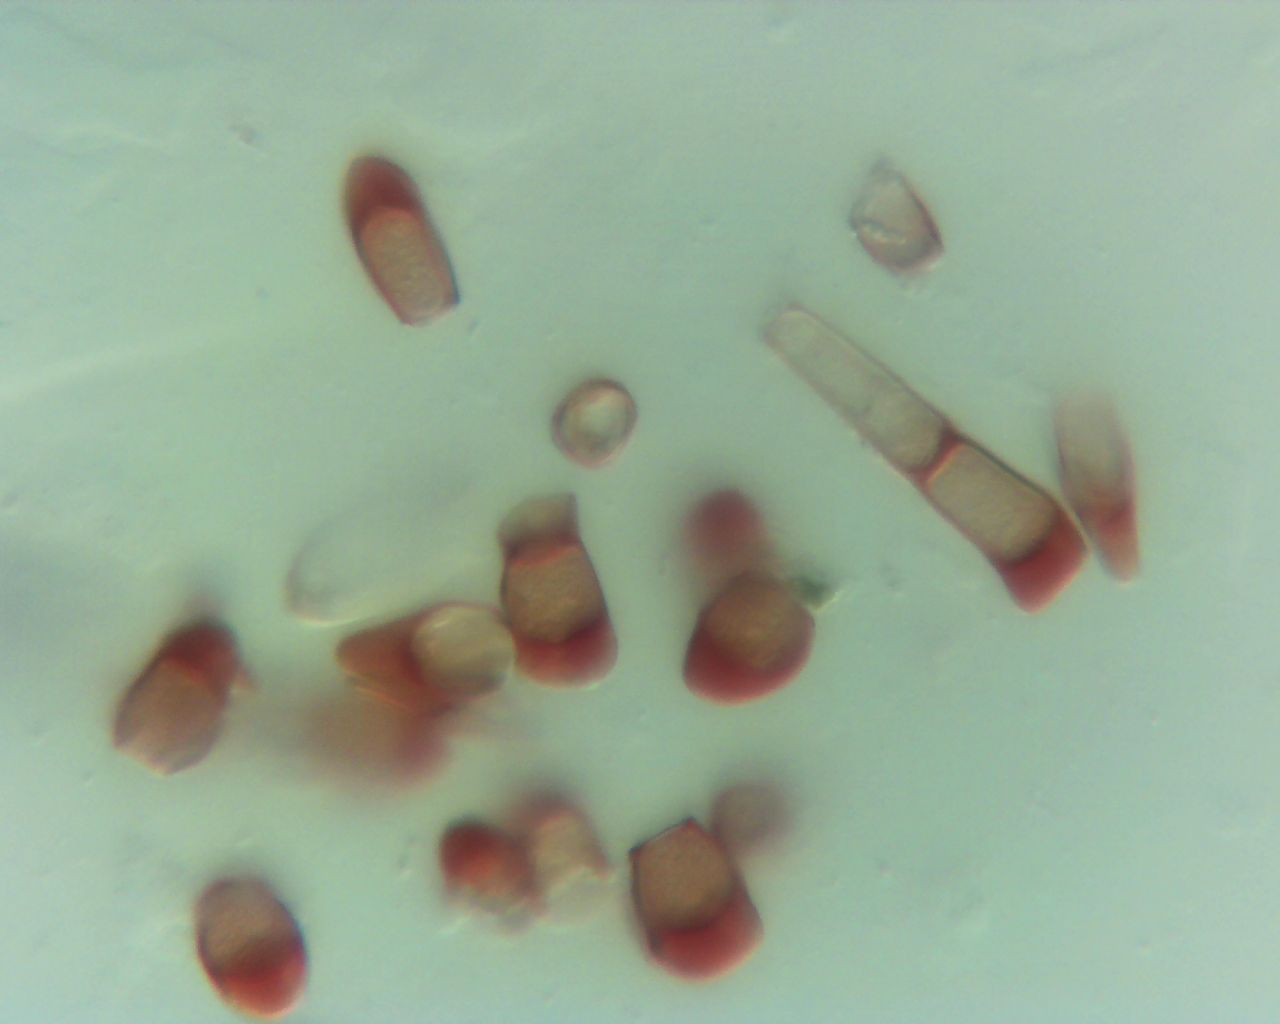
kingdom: Fungi
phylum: Basidiomycota
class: Pucciniomycetes
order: Pucciniales
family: Pucciniaceae
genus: Puccinia
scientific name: Puccinia caricina
